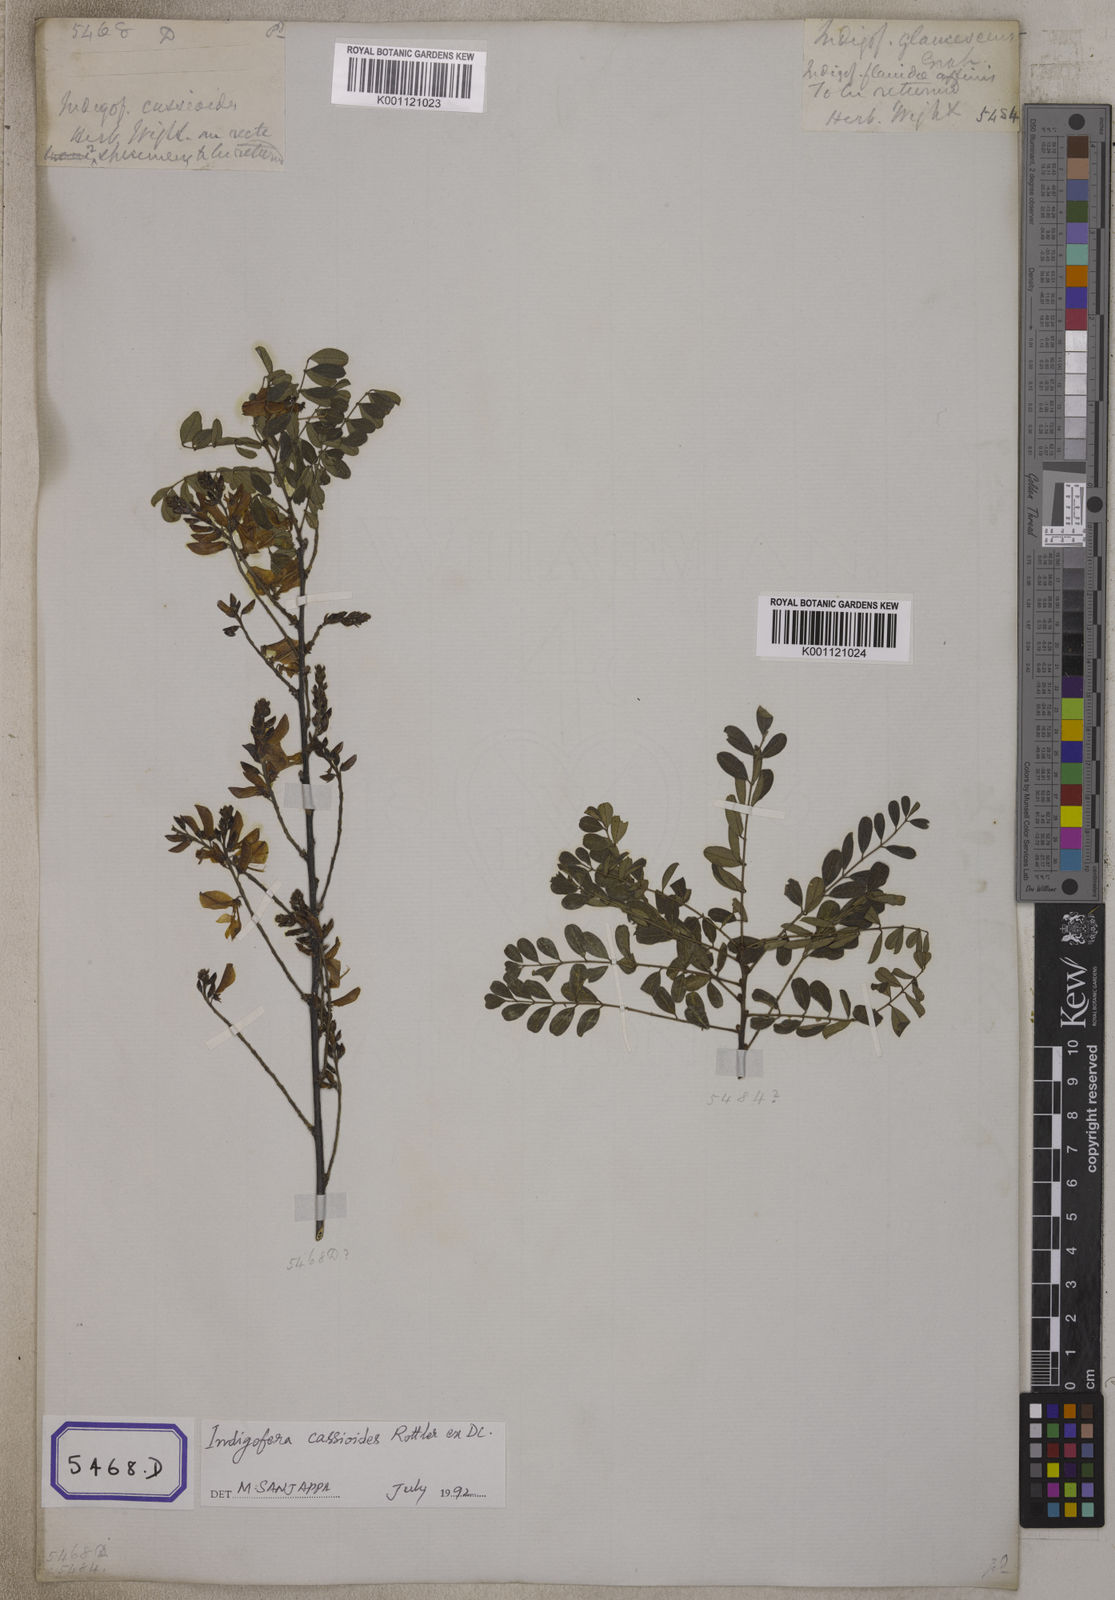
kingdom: Plantae
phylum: Tracheophyta
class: Magnoliopsida
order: Fabales
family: Fabaceae
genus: Indigofera
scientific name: Indigofera cassioides
